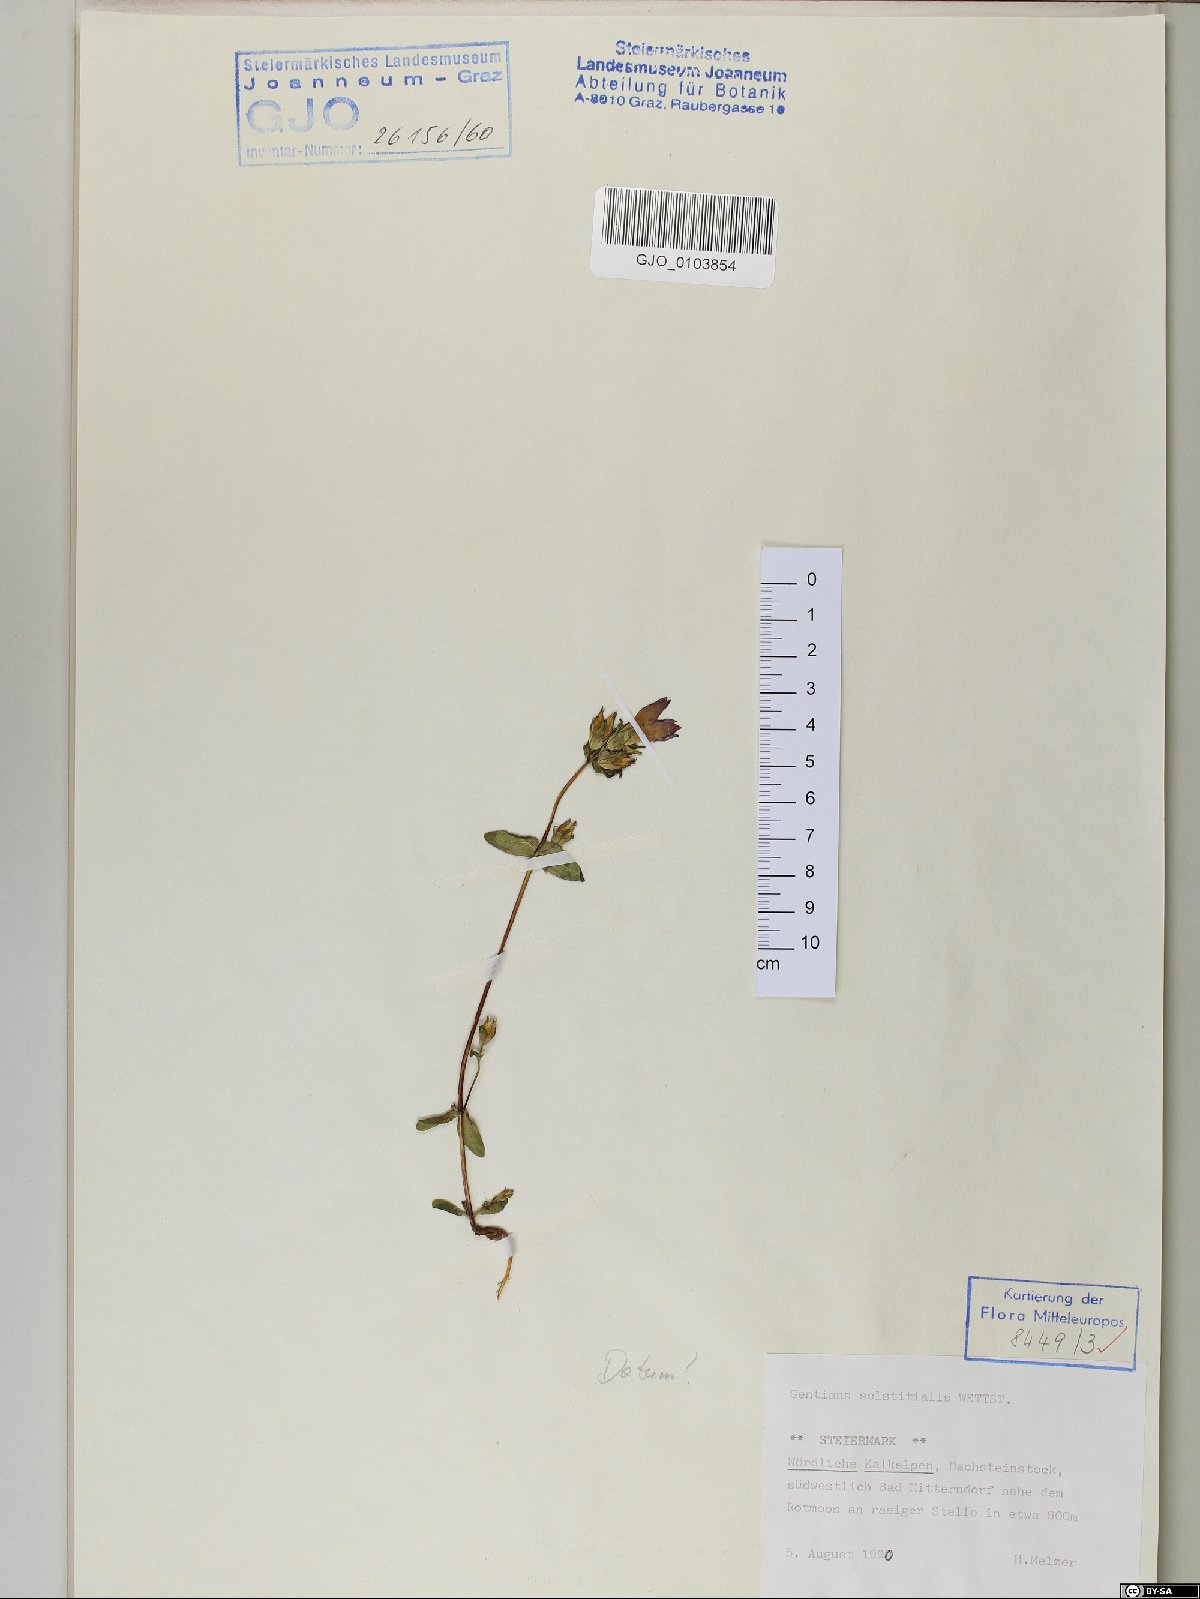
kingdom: Plantae
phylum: Tracheophyta
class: Magnoliopsida
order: Gentianales
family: Gentianaceae
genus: Gentianella
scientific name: Gentianella germanica
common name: Chiltern-gentian
